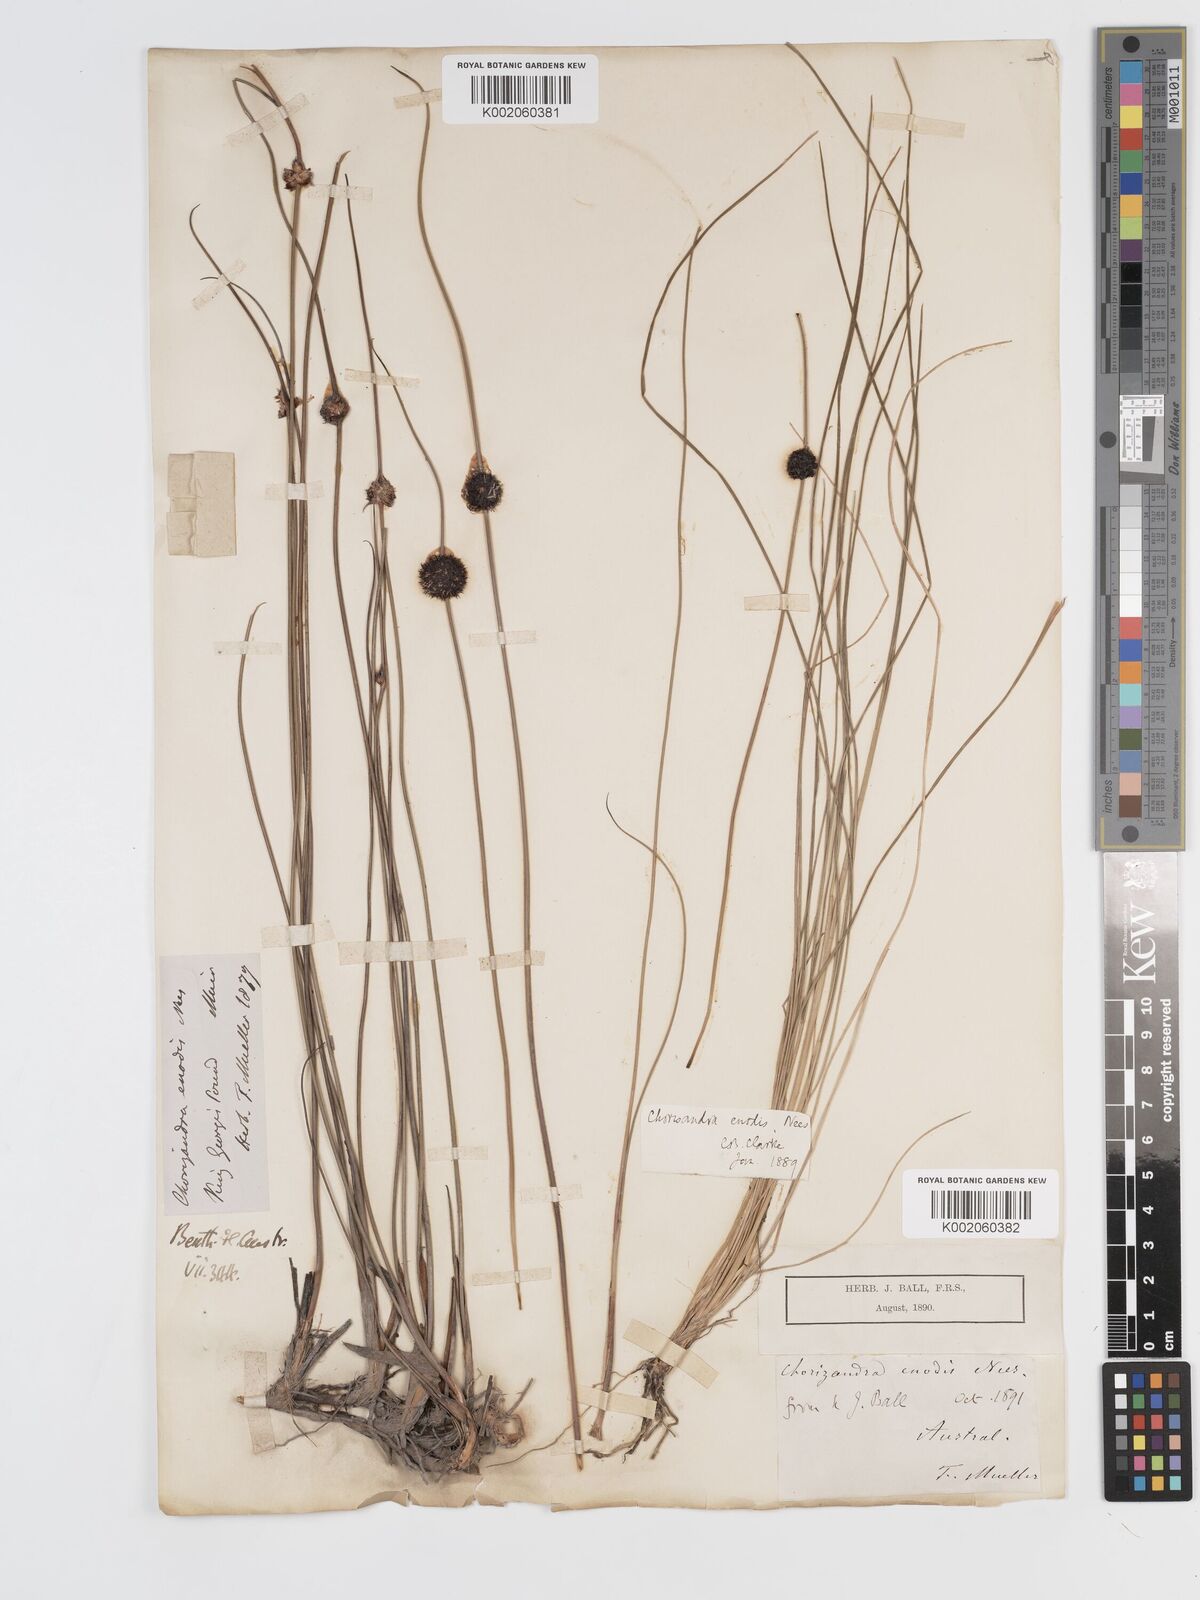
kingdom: Plantae
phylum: Tracheophyta
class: Liliopsida
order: Poales
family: Cyperaceae
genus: Chorizandra
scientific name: Chorizandra enodis
